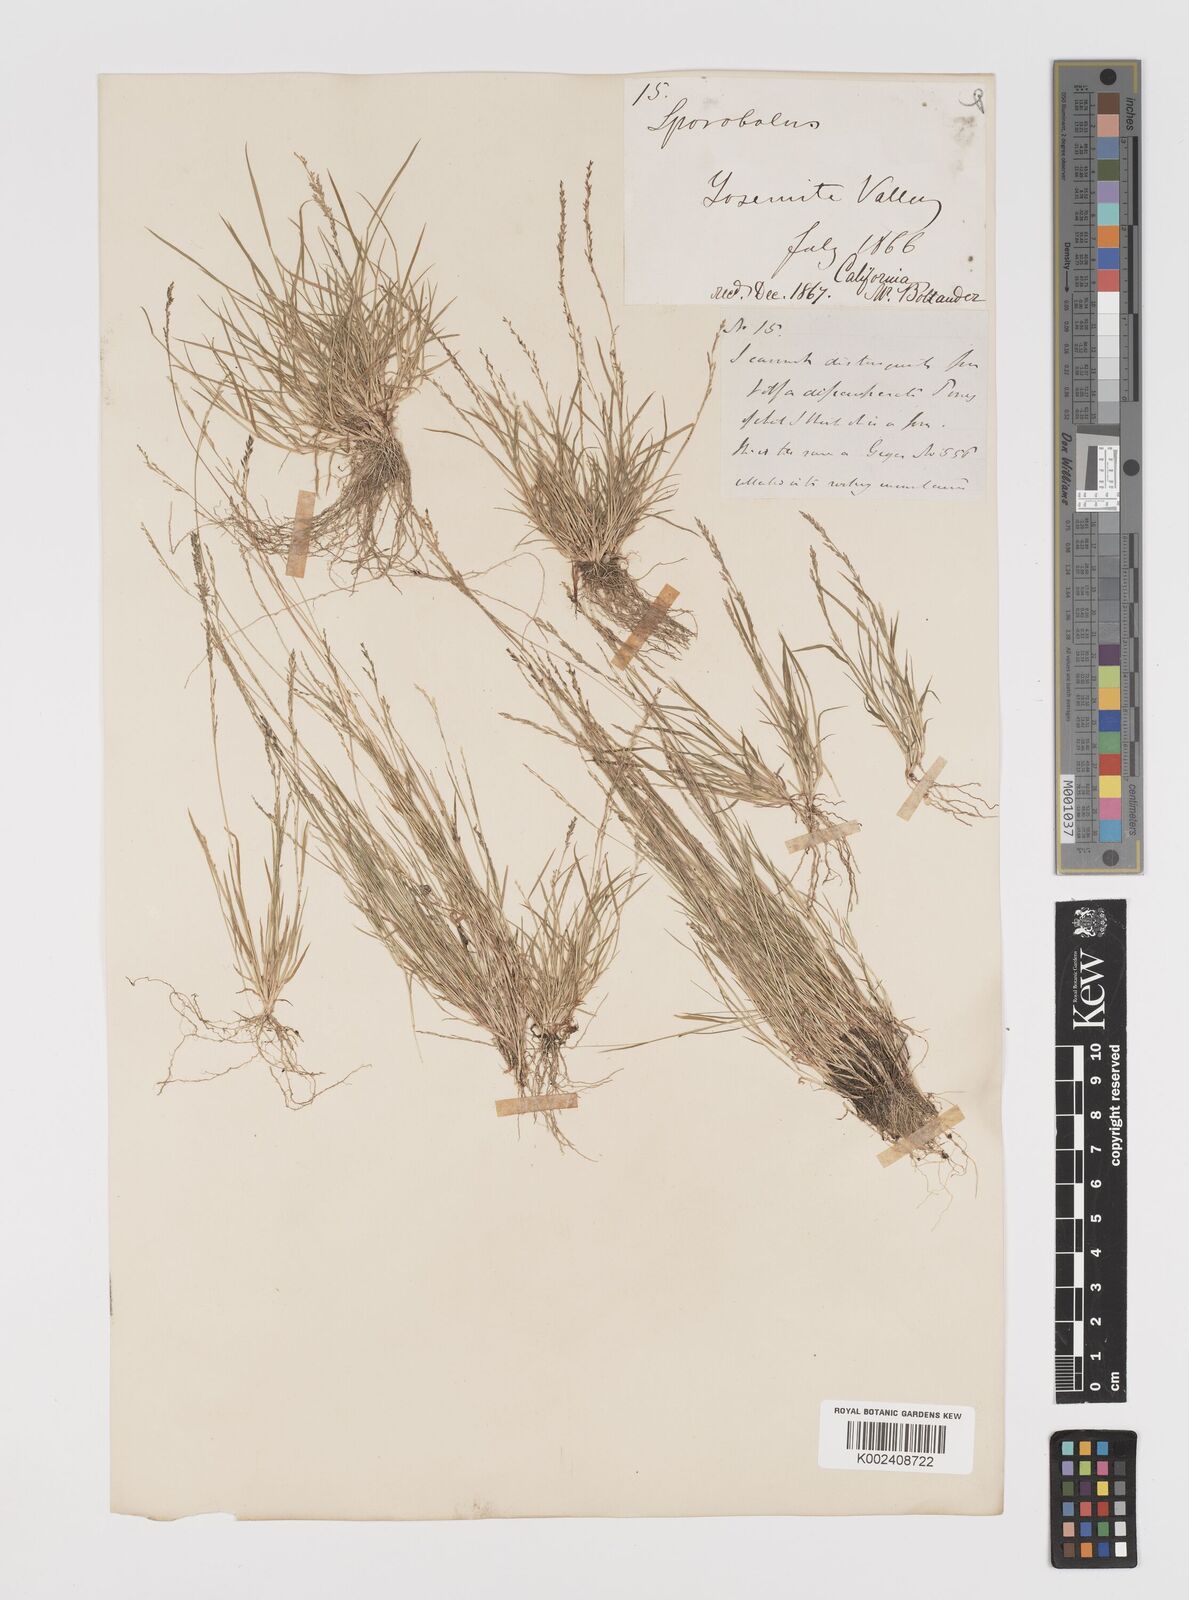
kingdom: Plantae
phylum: Tracheophyta
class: Liliopsida
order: Poales
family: Poaceae
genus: Muhlenbergia
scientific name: Muhlenbergia richardsonis
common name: Mat muhly
